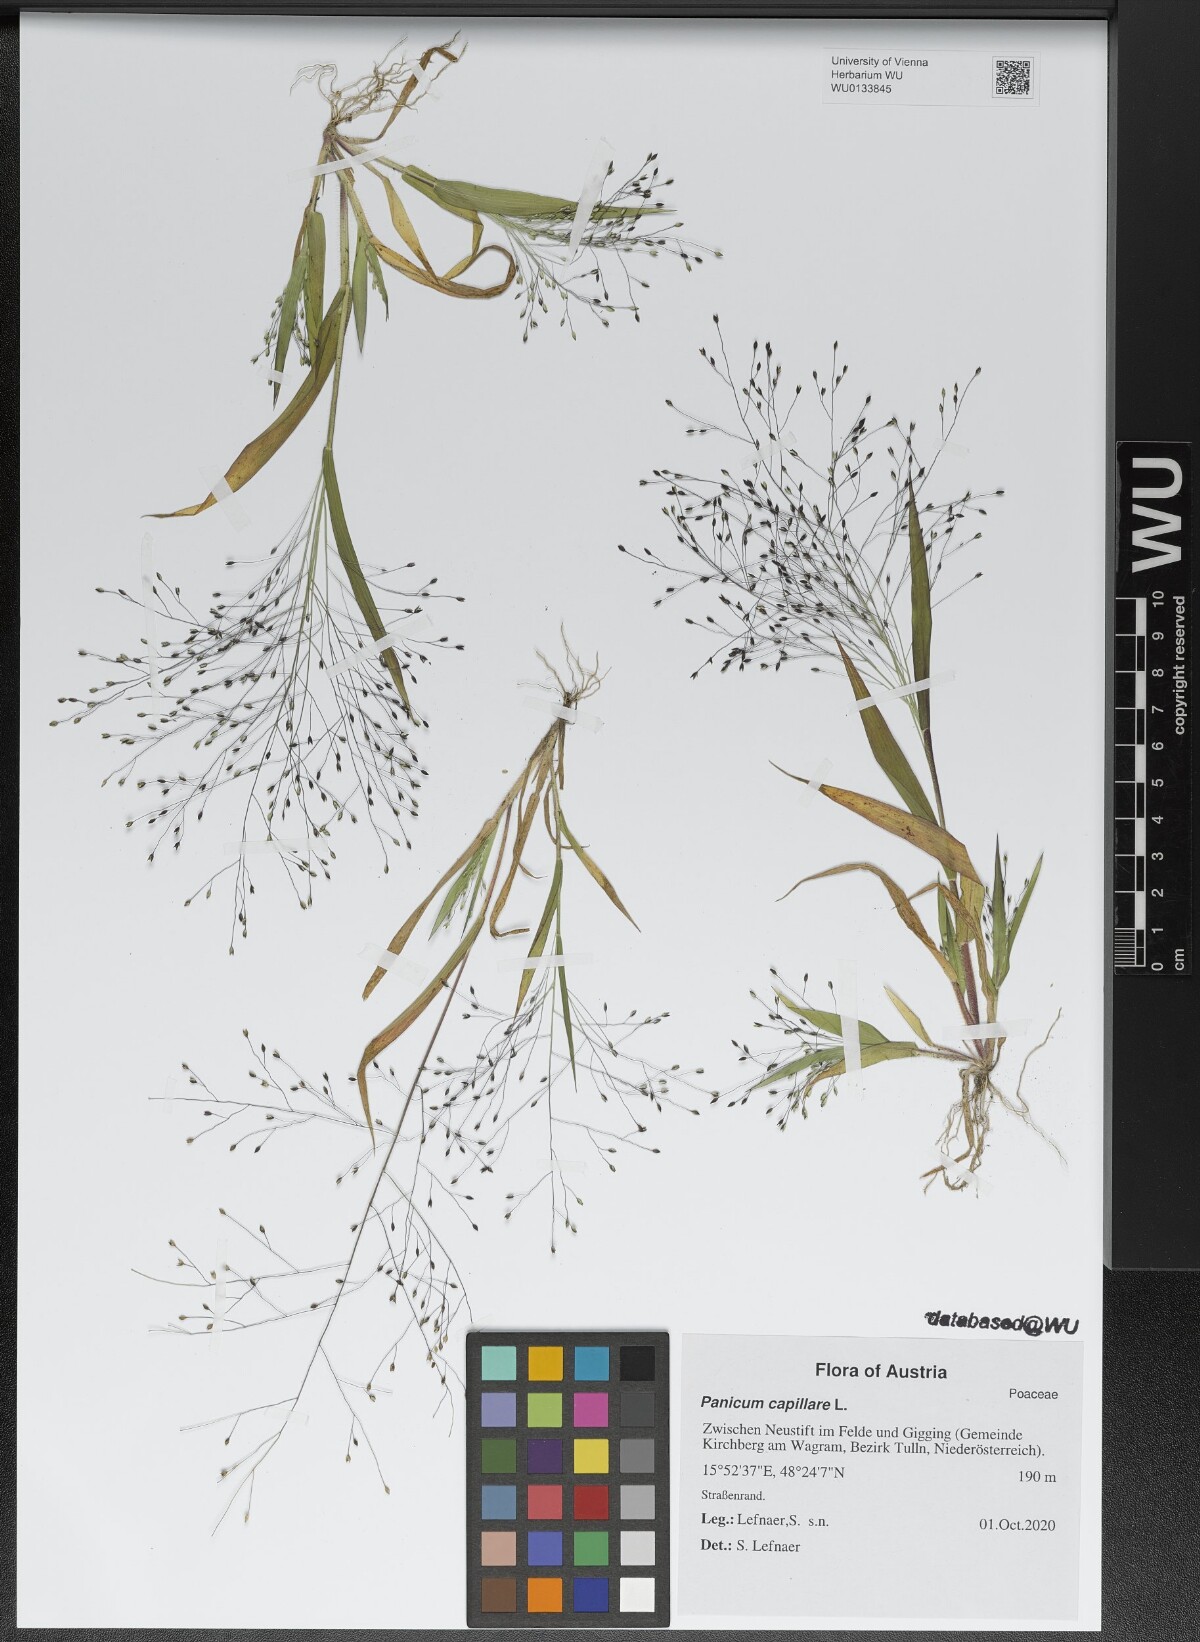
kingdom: Plantae
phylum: Tracheophyta
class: Liliopsida
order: Poales
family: Poaceae
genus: Panicum
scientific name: Panicum capillare
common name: Witch-grass
